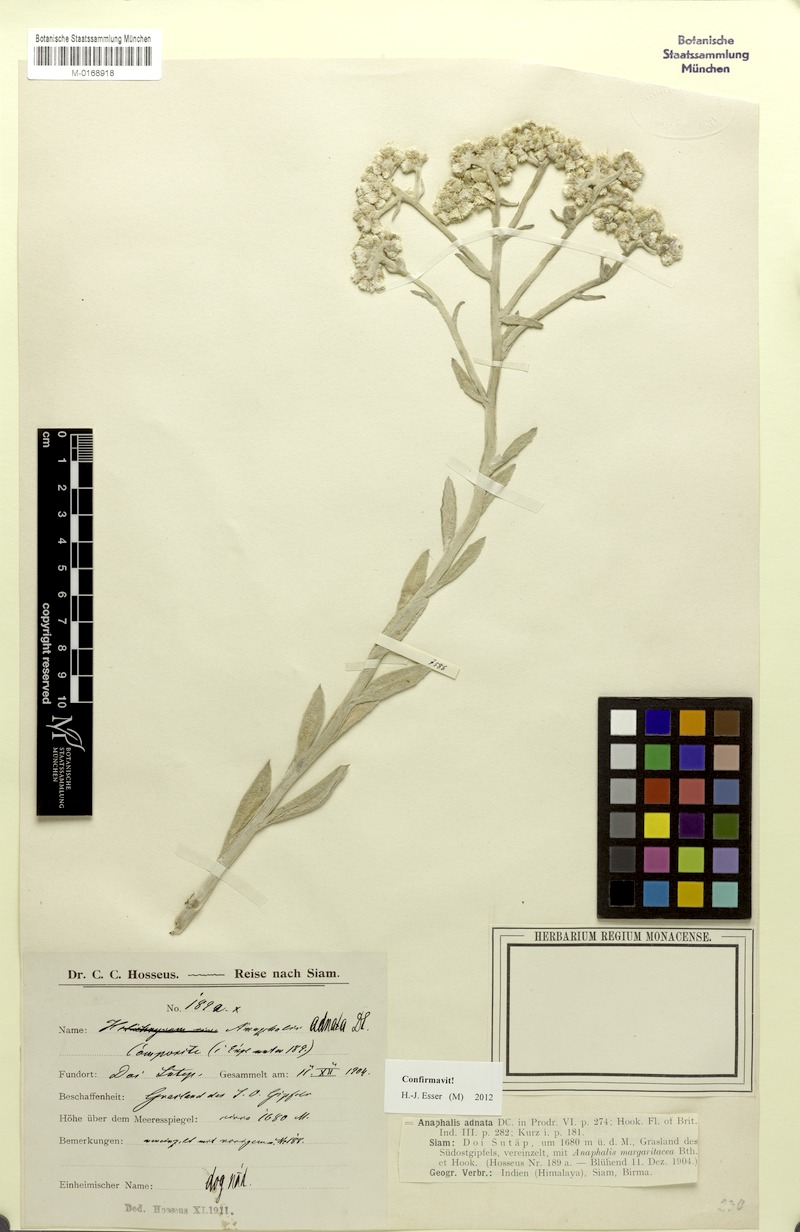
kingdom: Plantae
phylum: Tracheophyta
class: Magnoliopsida
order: Asterales
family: Asteraceae
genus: Pseudognaphalium
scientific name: Pseudognaphalium adnatum
